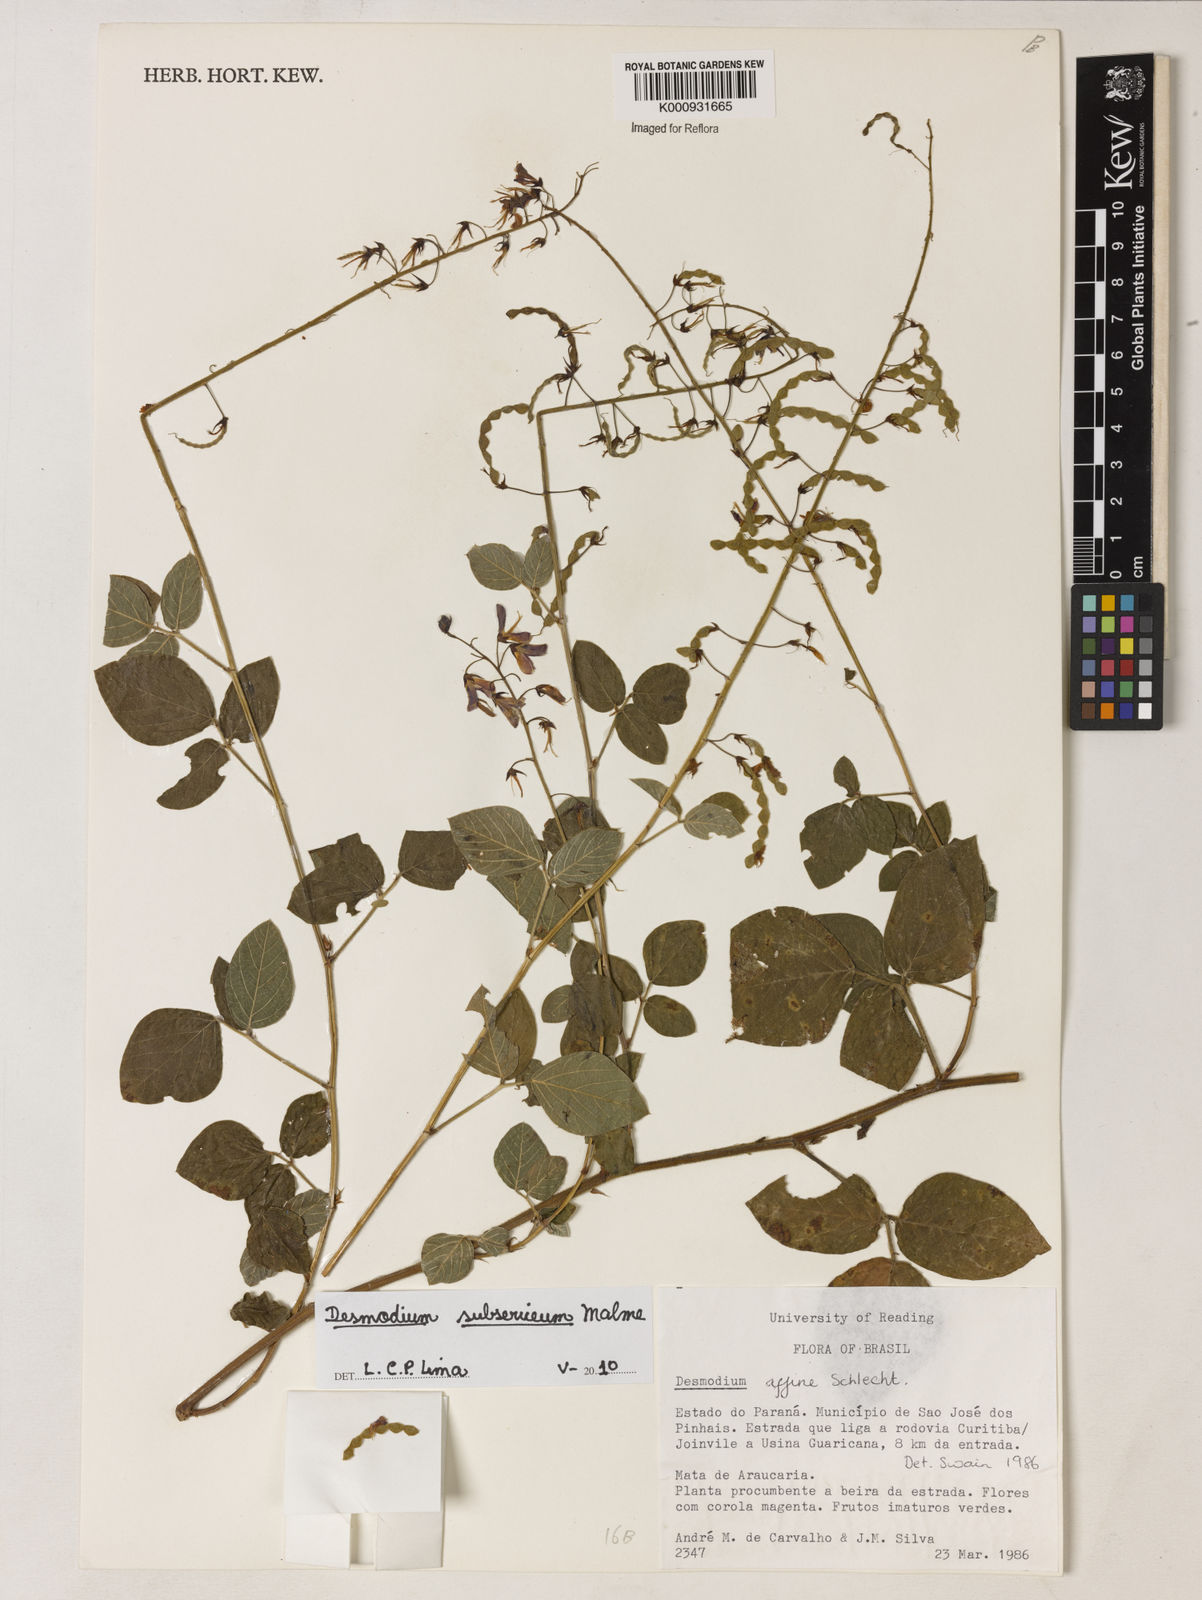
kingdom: Plantae
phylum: Tracheophyta
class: Magnoliopsida
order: Fabales
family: Fabaceae
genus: Desmodium
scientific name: Desmodium subsericeum
